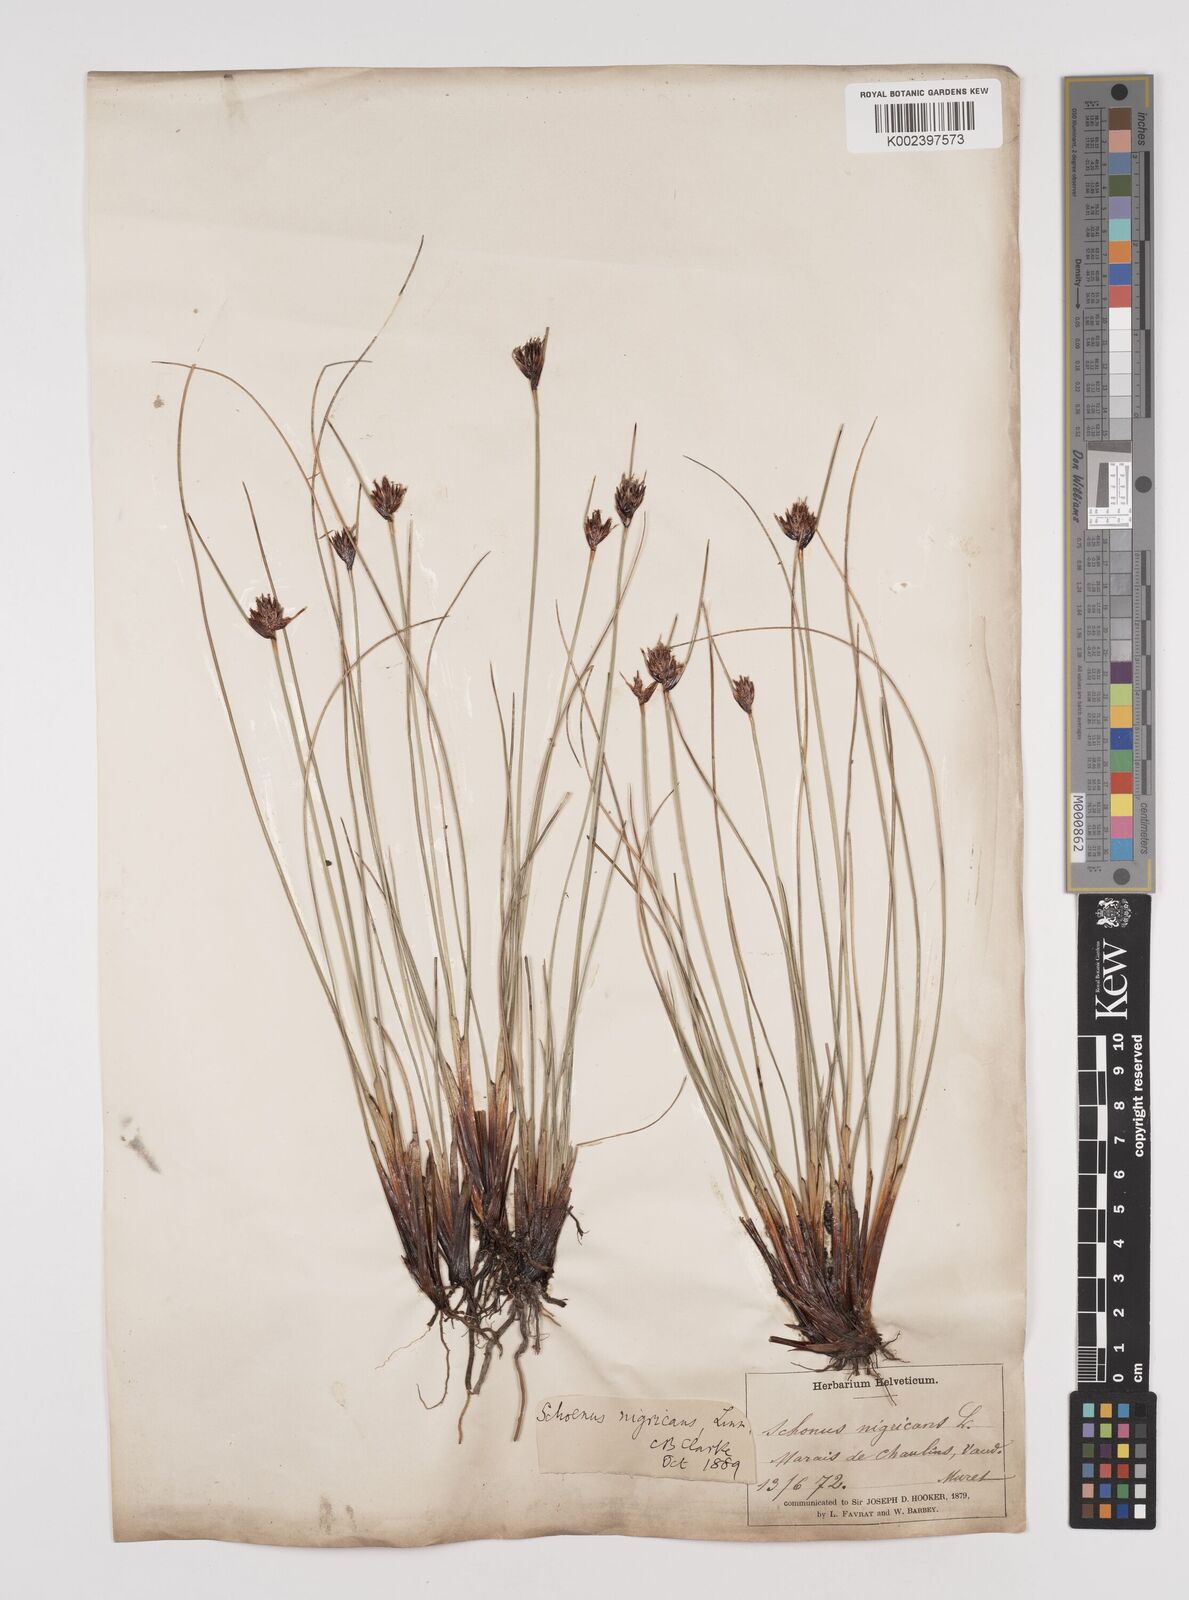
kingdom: Plantae
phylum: Tracheophyta
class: Liliopsida
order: Poales
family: Cyperaceae
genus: Schoenus
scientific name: Schoenus nigricans
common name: Black bog-rush
